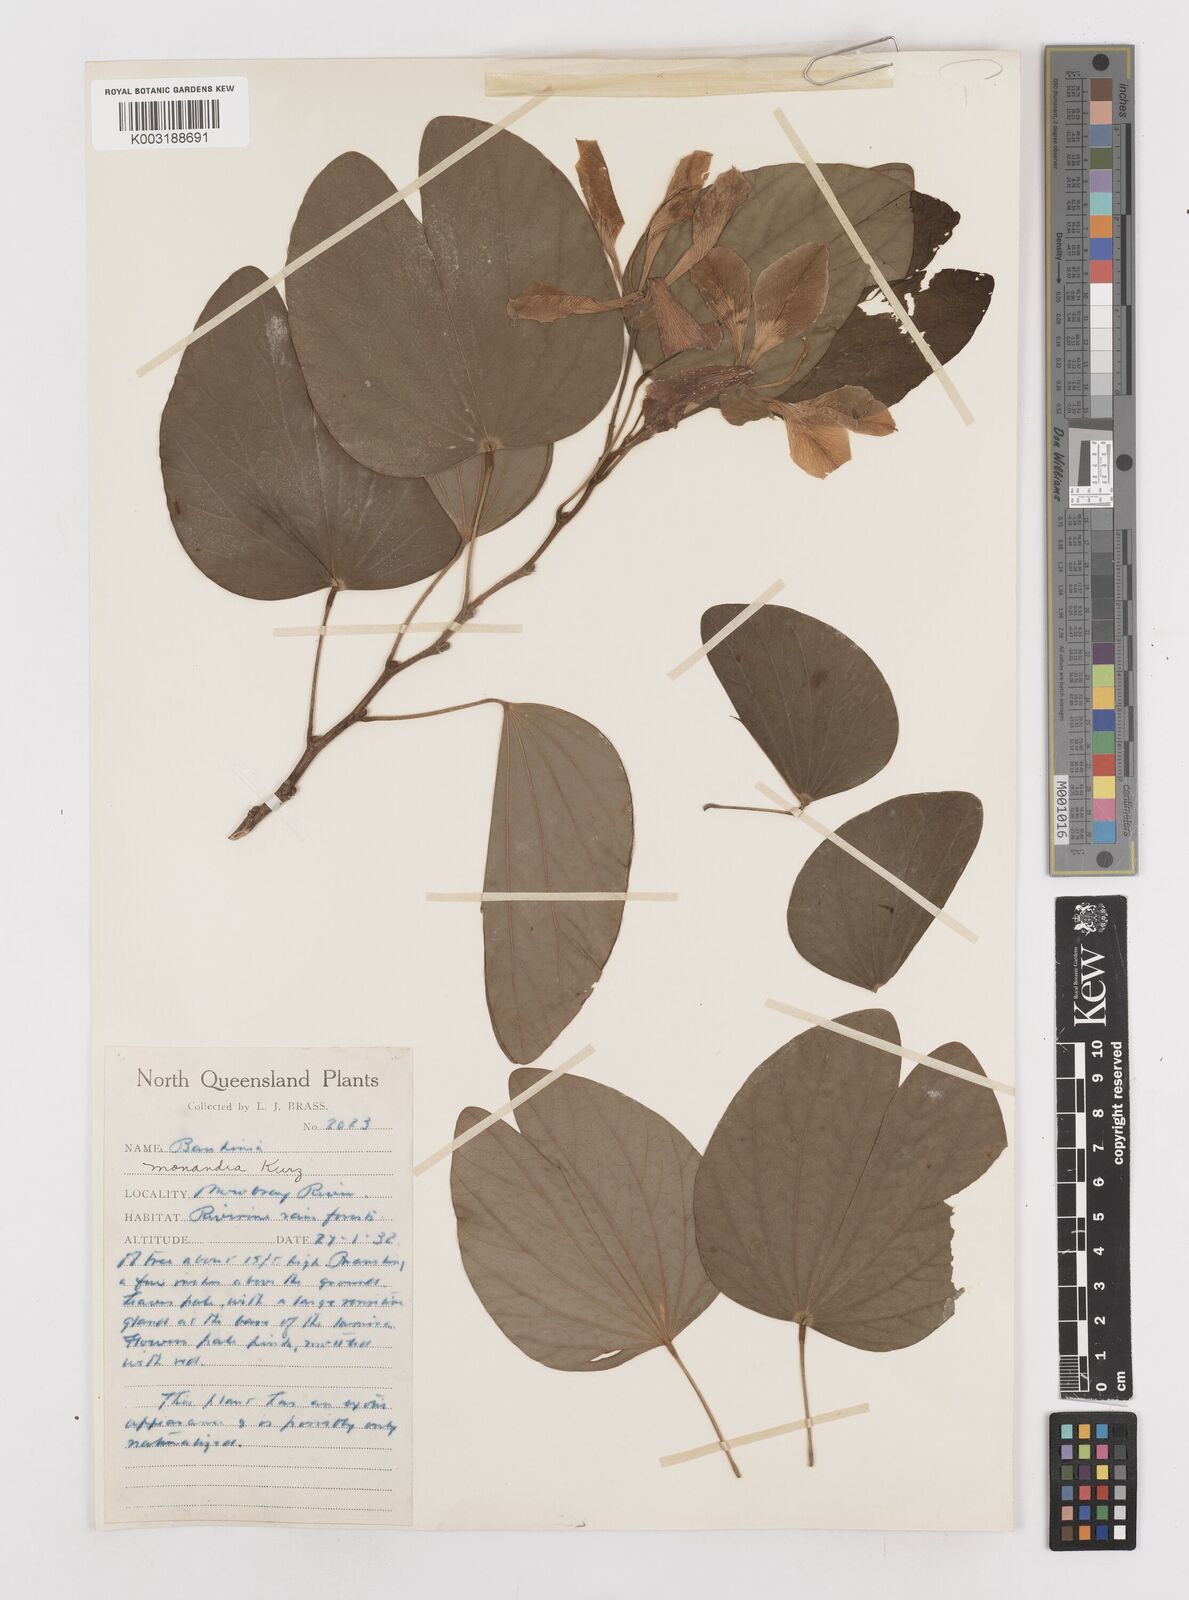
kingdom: Plantae
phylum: Tracheophyta
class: Magnoliopsida
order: Fabales
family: Fabaceae
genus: Bauhinia
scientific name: Bauhinia monandra
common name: Napoleon's plume
